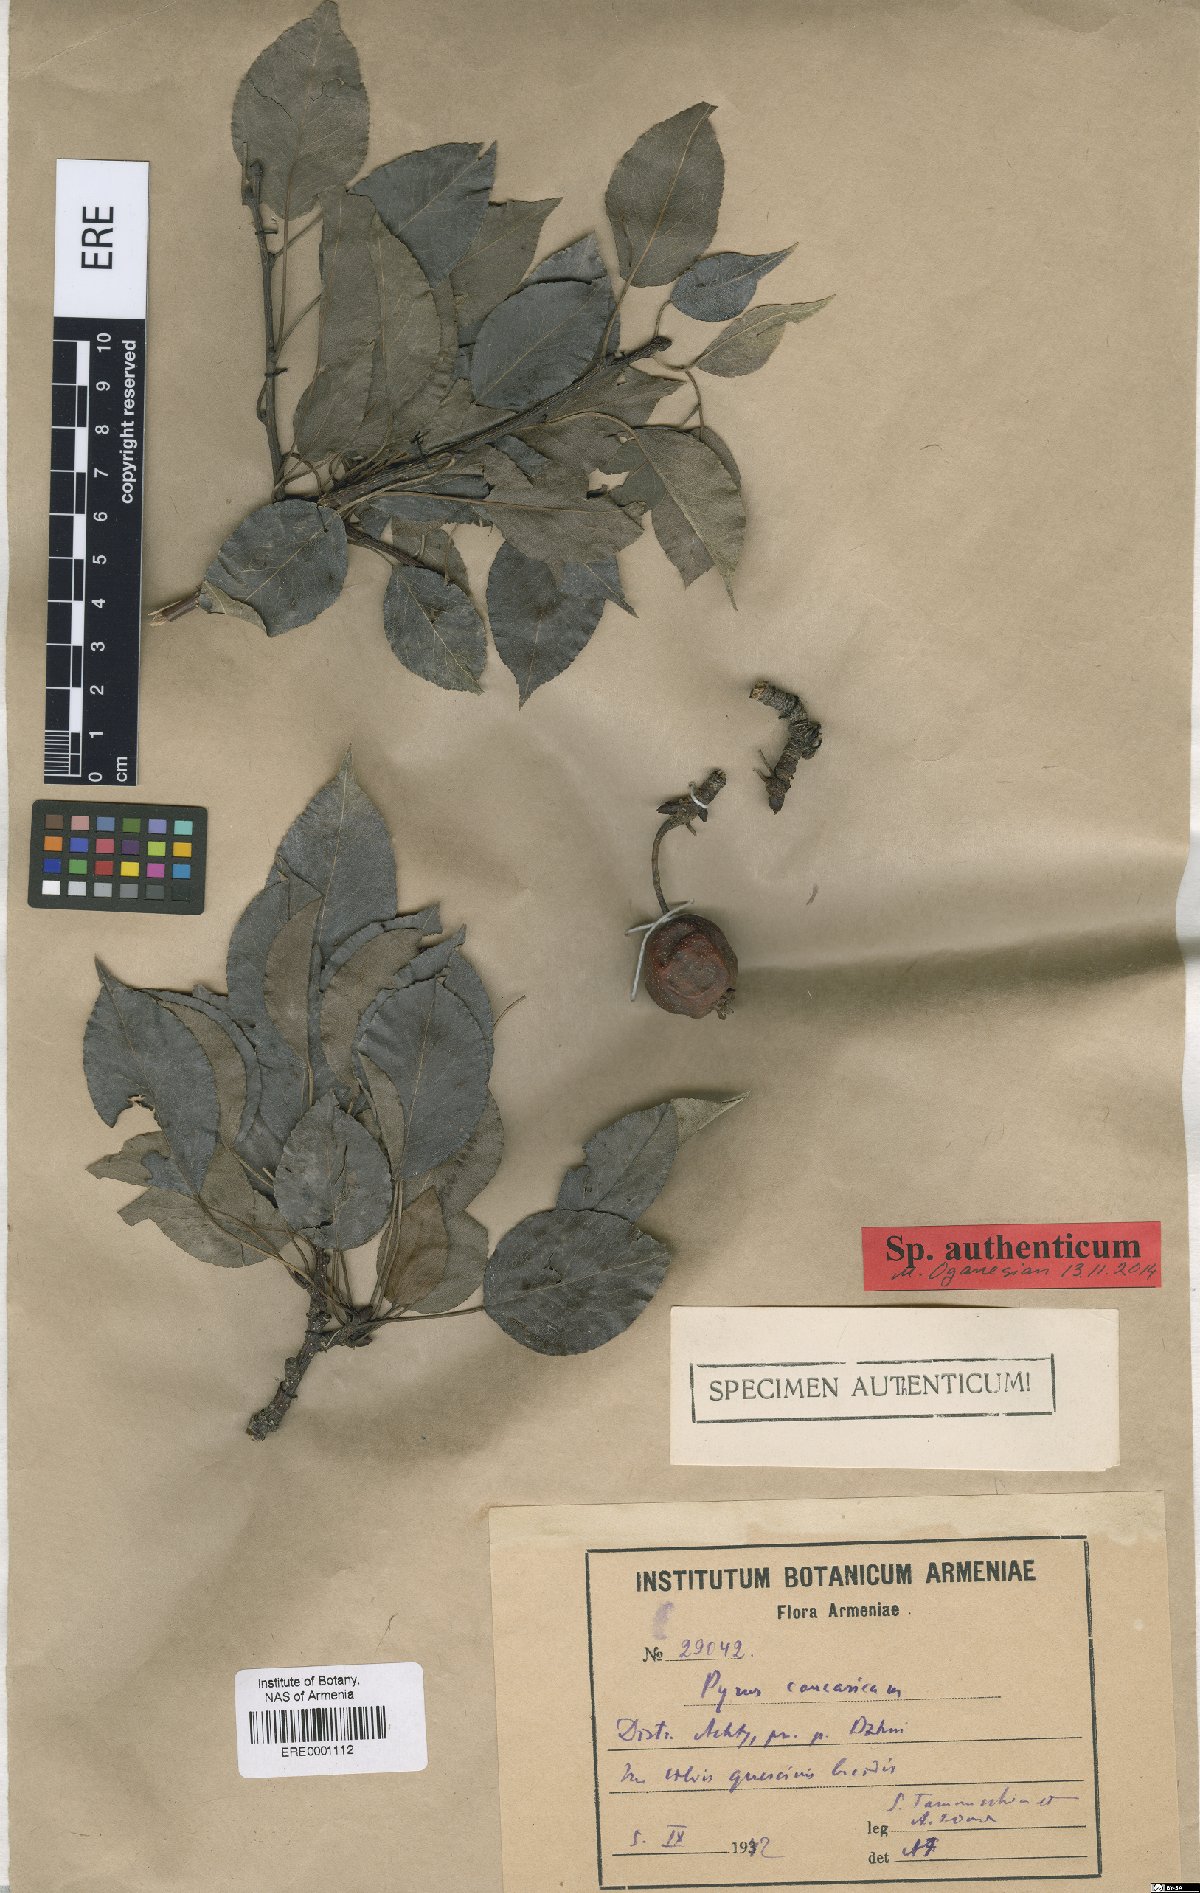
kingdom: Plantae
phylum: Tracheophyta
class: Magnoliopsida
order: Rosales
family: Rosaceae
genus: Pyrus
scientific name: Pyrus communis
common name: Pear
